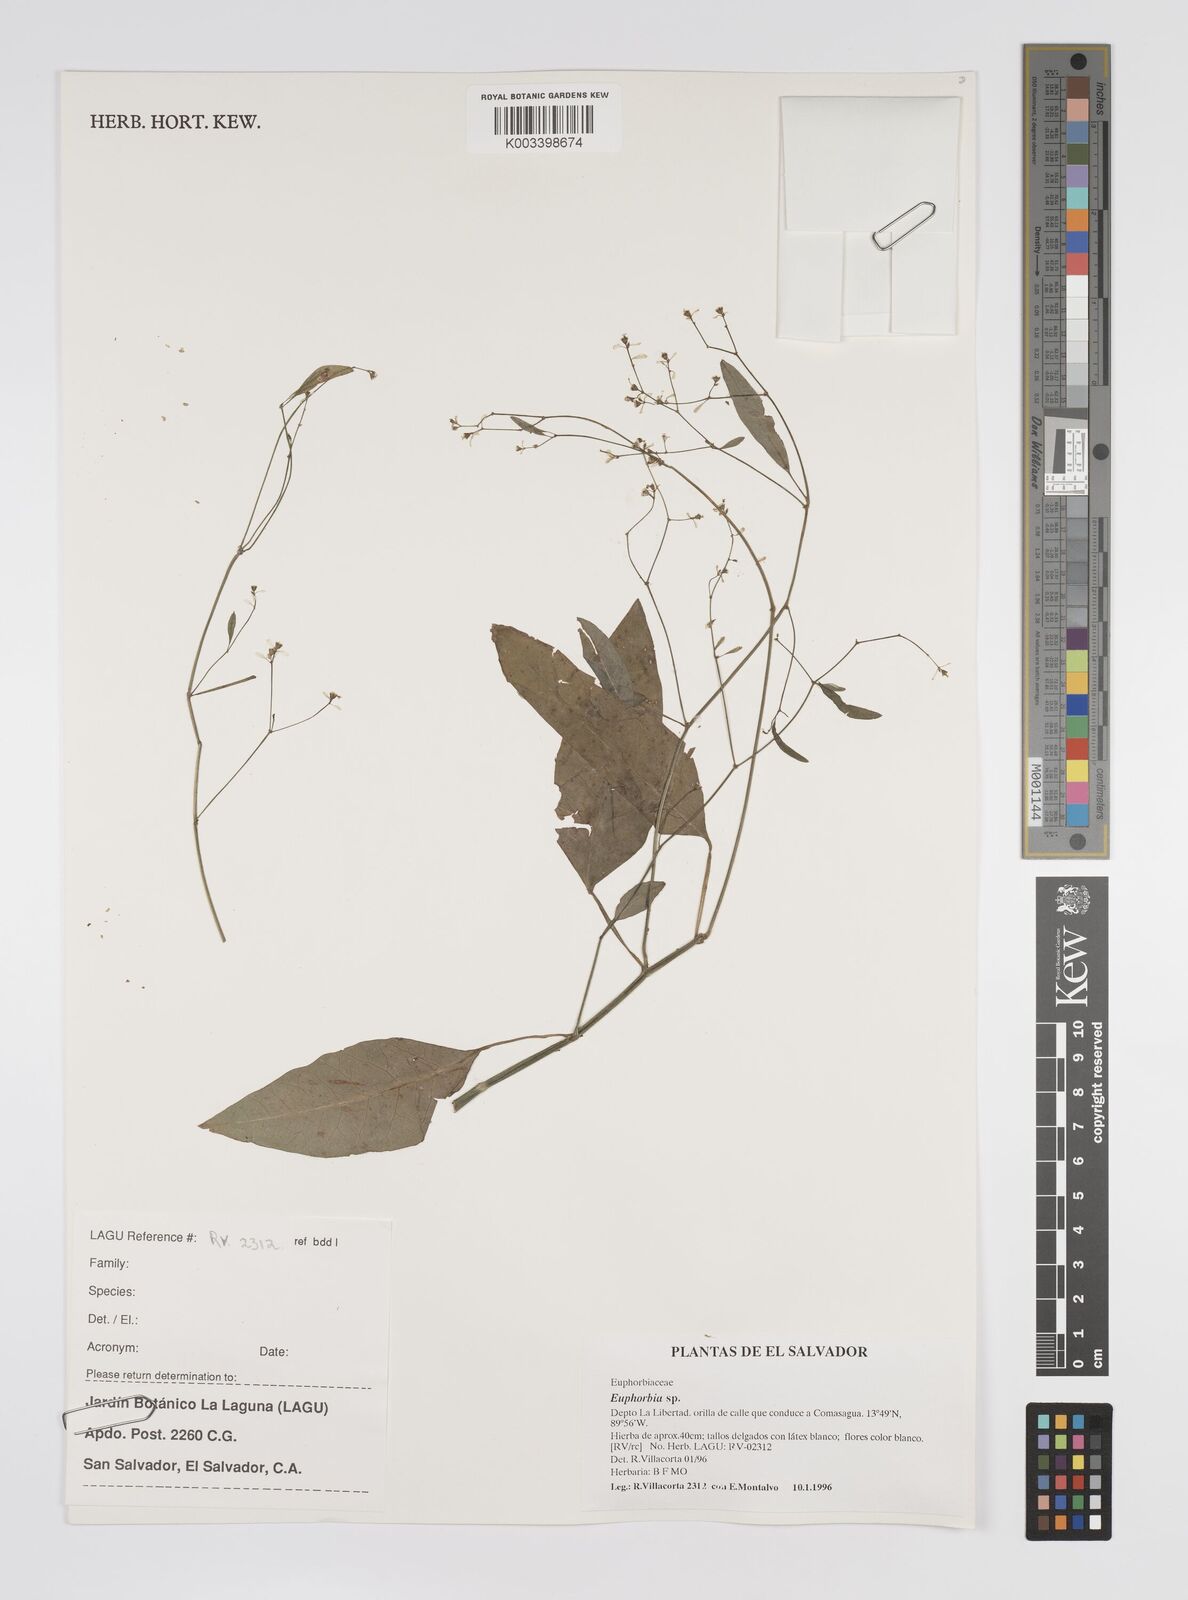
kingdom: Plantae
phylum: Tracheophyta
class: Magnoliopsida
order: Malpighiales
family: Euphorbiaceae
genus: Euphorbia
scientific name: Euphorbia
